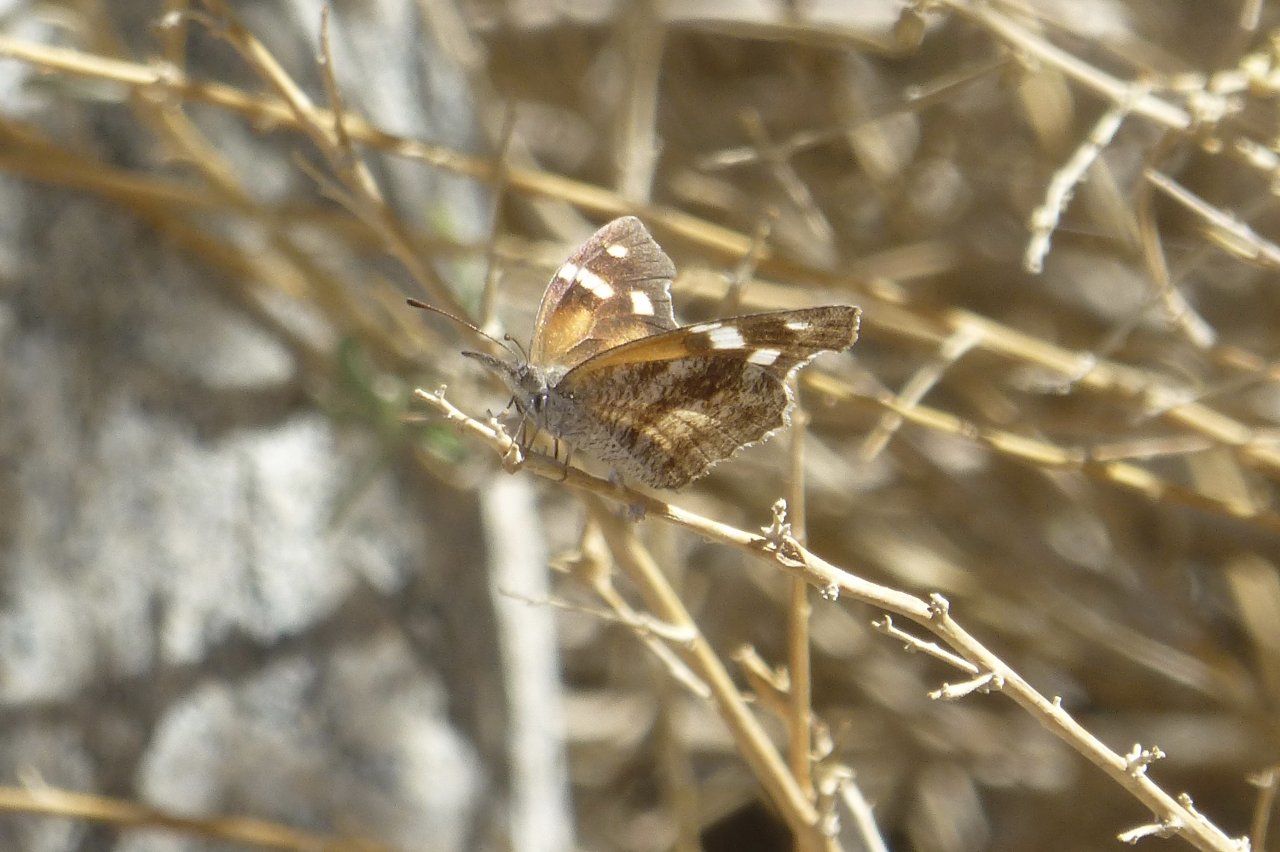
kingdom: Animalia
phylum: Arthropoda
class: Insecta
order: Lepidoptera
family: Nymphalidae
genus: Libytheana
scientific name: Libytheana carinenta
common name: American Snout
